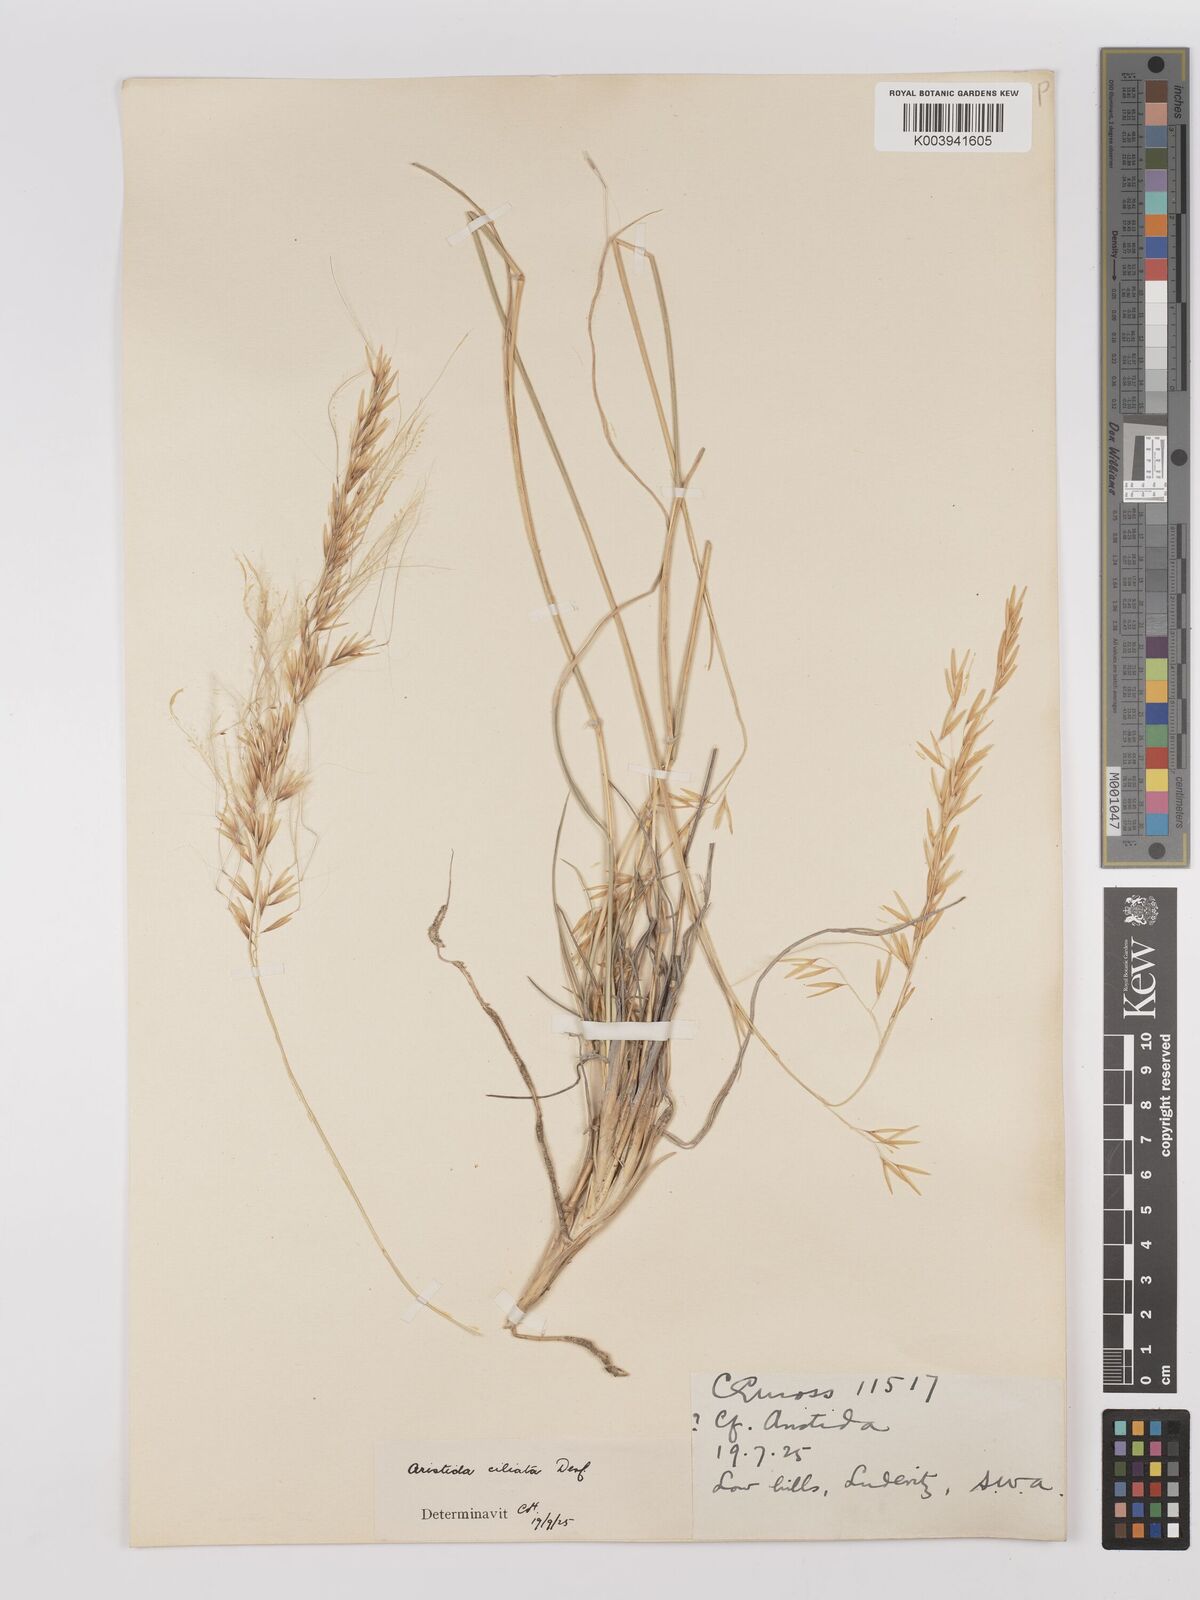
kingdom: Plantae
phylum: Tracheophyta
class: Liliopsida
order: Poales
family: Poaceae
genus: Stipagrostis
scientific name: Stipagrostis ciliata
